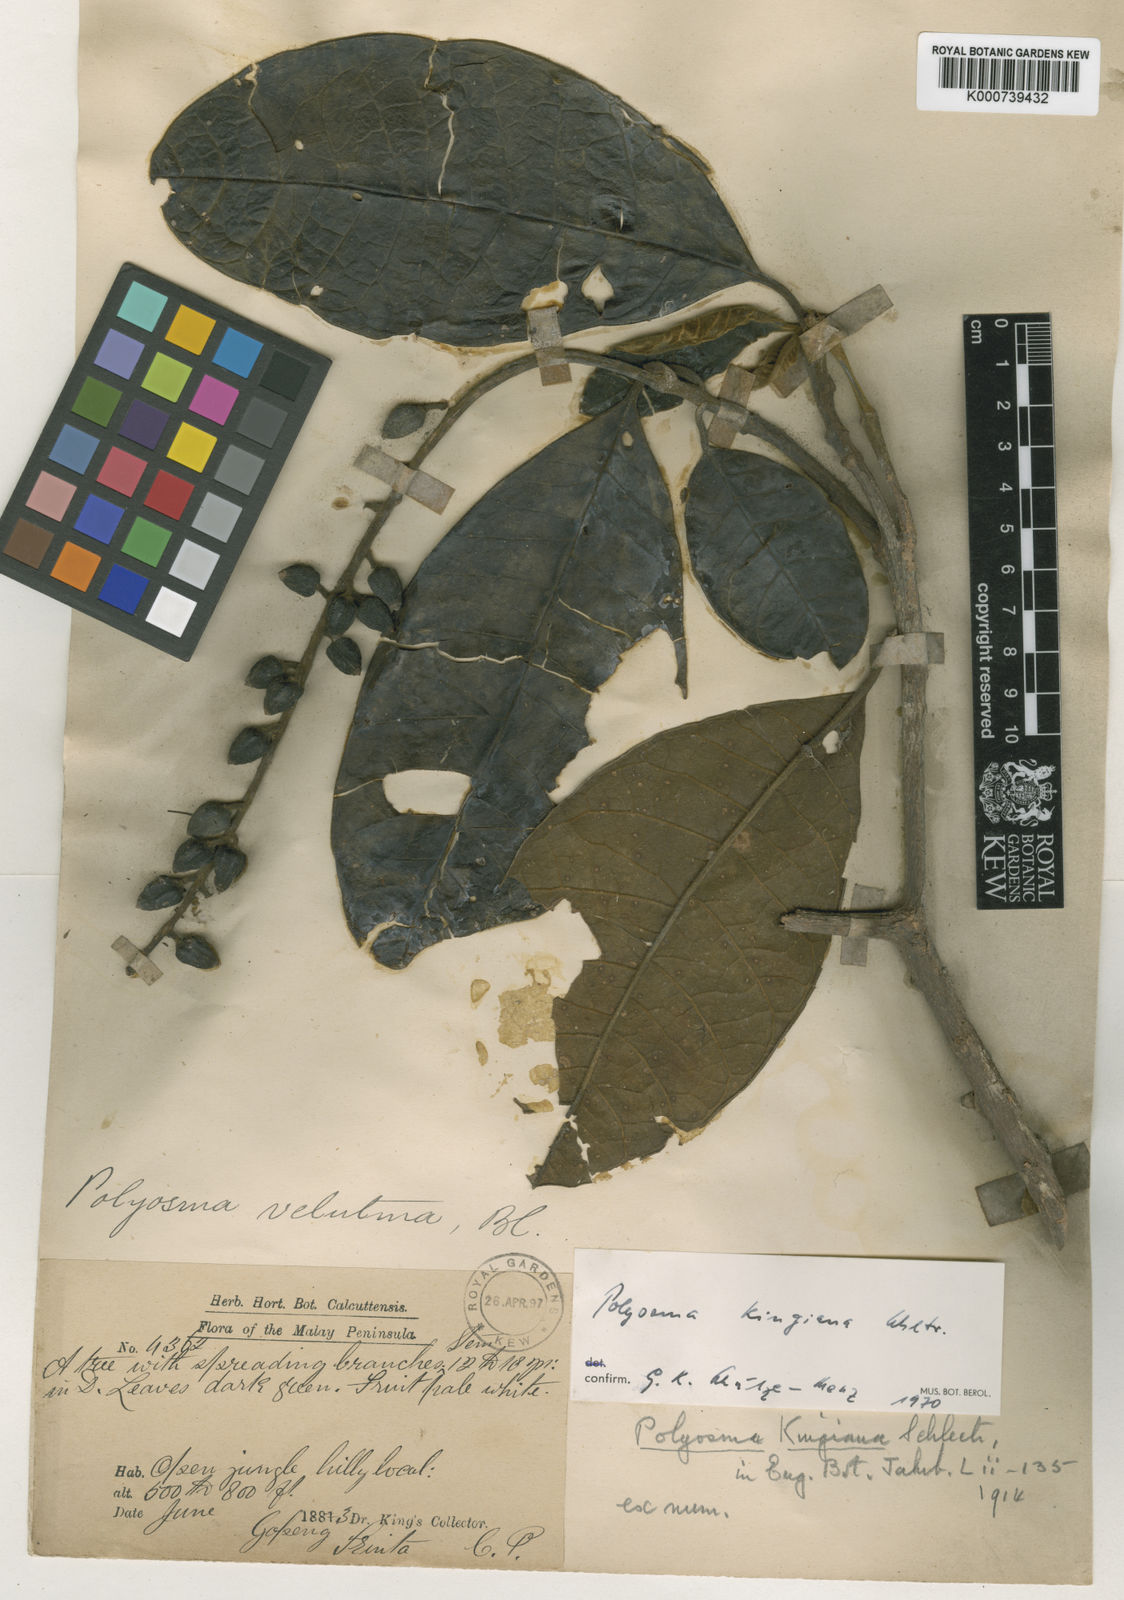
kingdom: Plantae
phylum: Tracheophyta
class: Magnoliopsida
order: Escalloniales
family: Escalloniaceae
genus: Polyosma
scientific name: Polyosma kingiana
